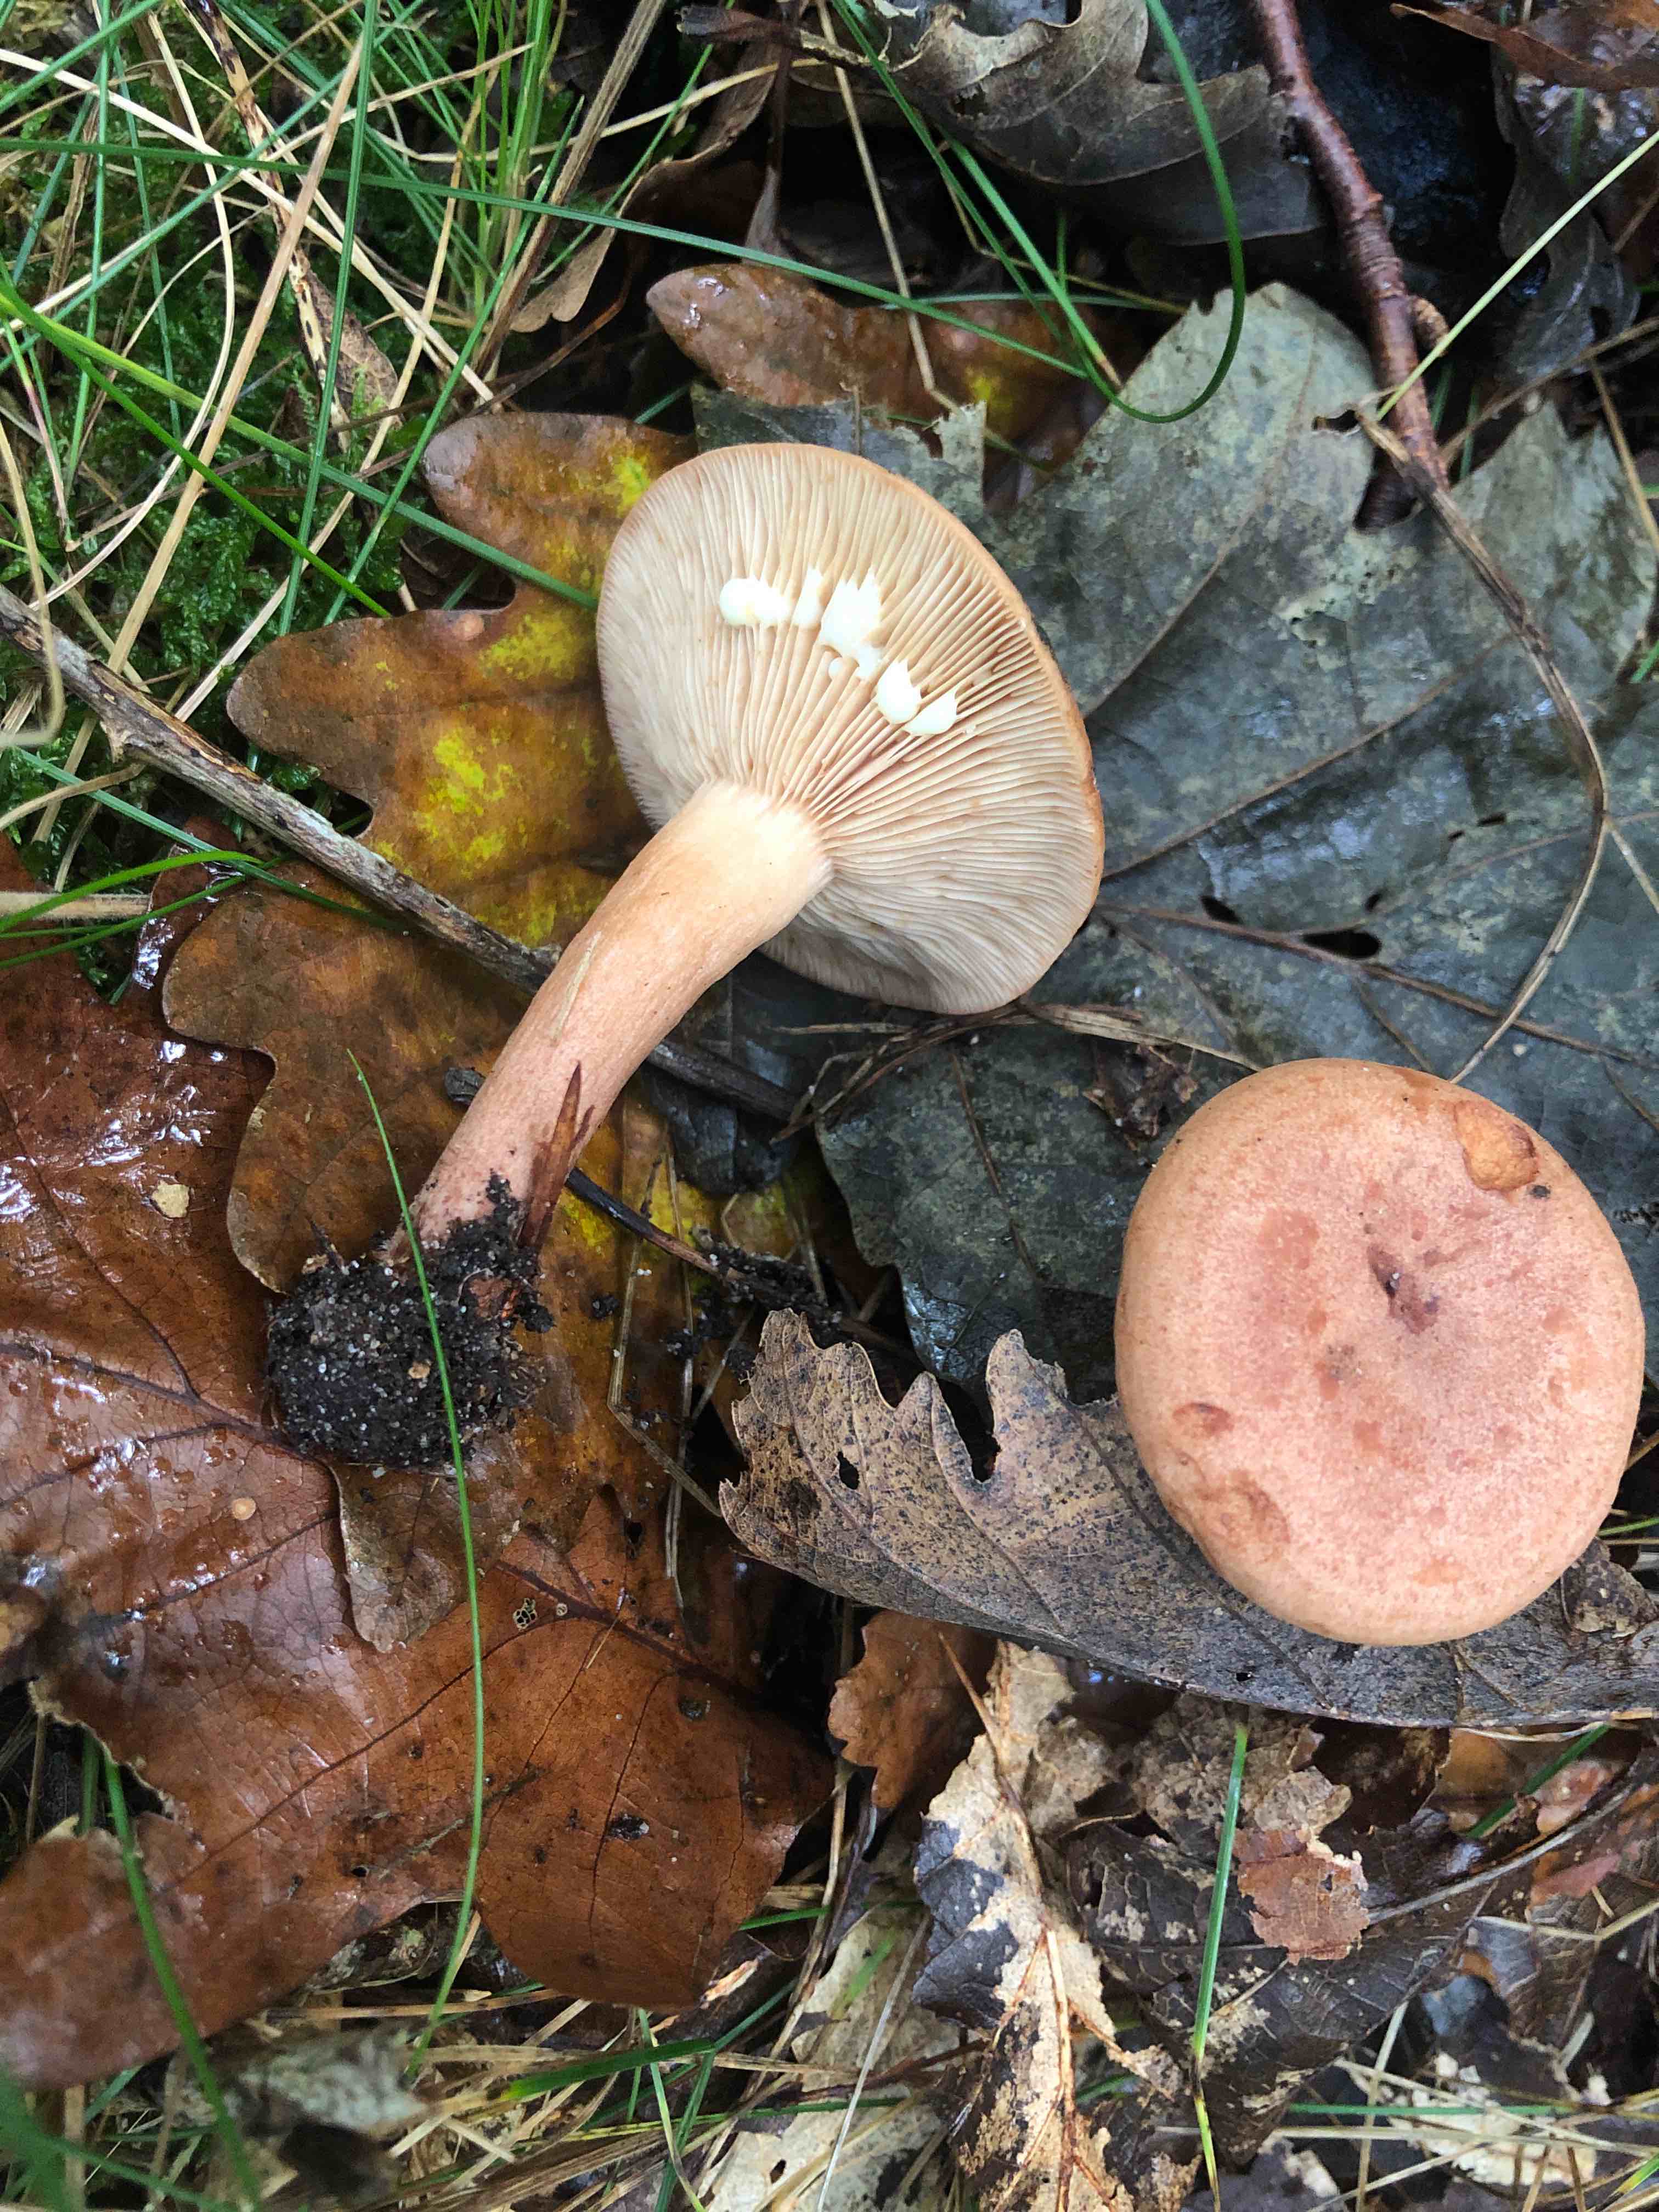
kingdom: Fungi
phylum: Basidiomycota
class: Agaricomycetes
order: Russulales
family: Russulaceae
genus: Lactarius
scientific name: Lactarius quietus
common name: ege-mælkehat
